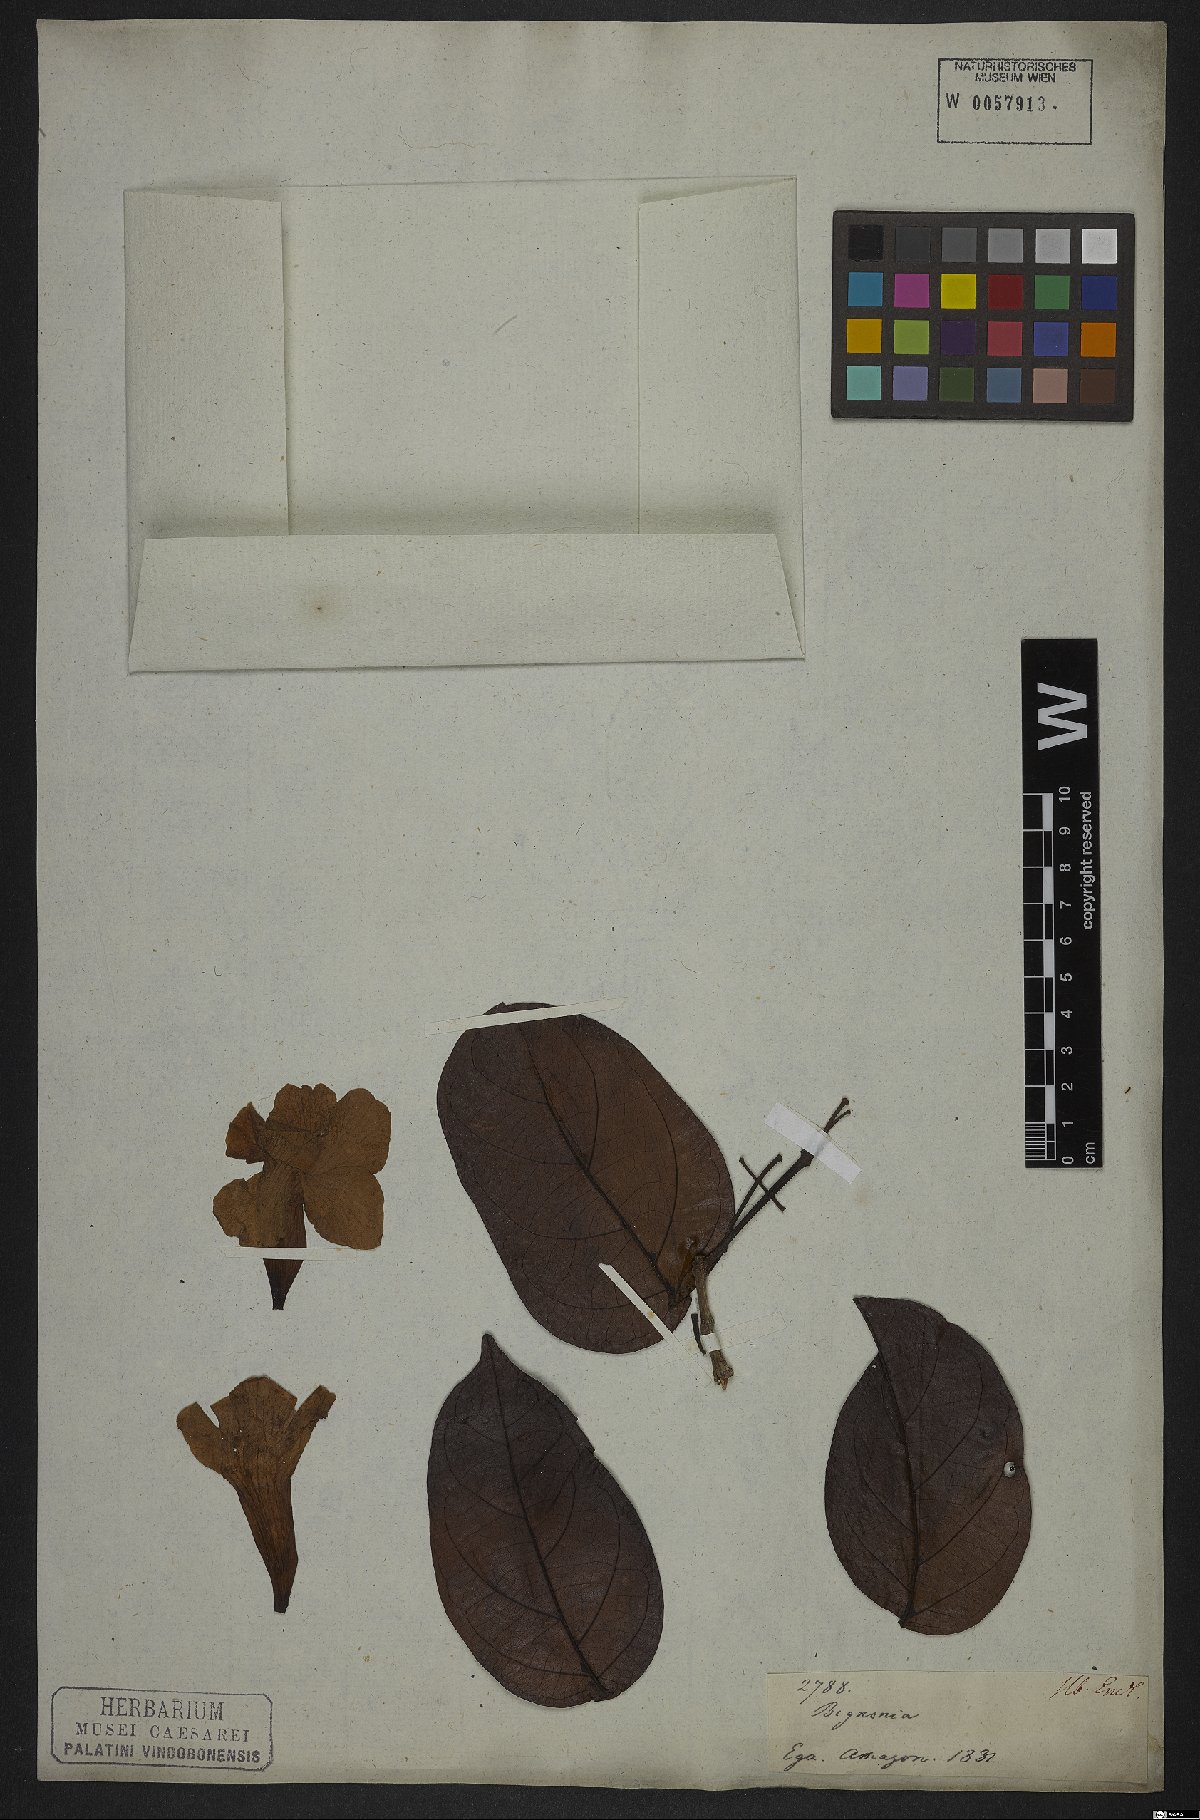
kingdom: Plantae
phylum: Tracheophyta
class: Magnoliopsida
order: Lamiales
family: Bignoniaceae
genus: Bignonia
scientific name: Bignonia
